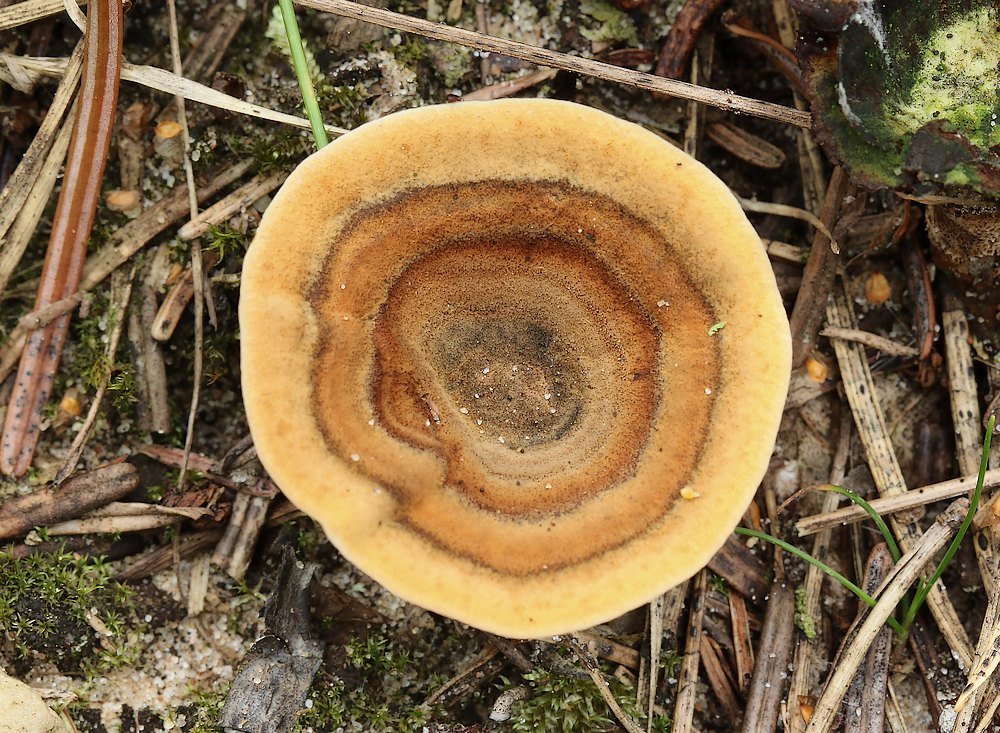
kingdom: Fungi
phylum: Basidiomycota
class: Agaricomycetes
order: Hymenochaetales
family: Hymenochaetaceae
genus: Coltricia
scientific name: Coltricia perennis
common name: almindelig sandporesvamp
